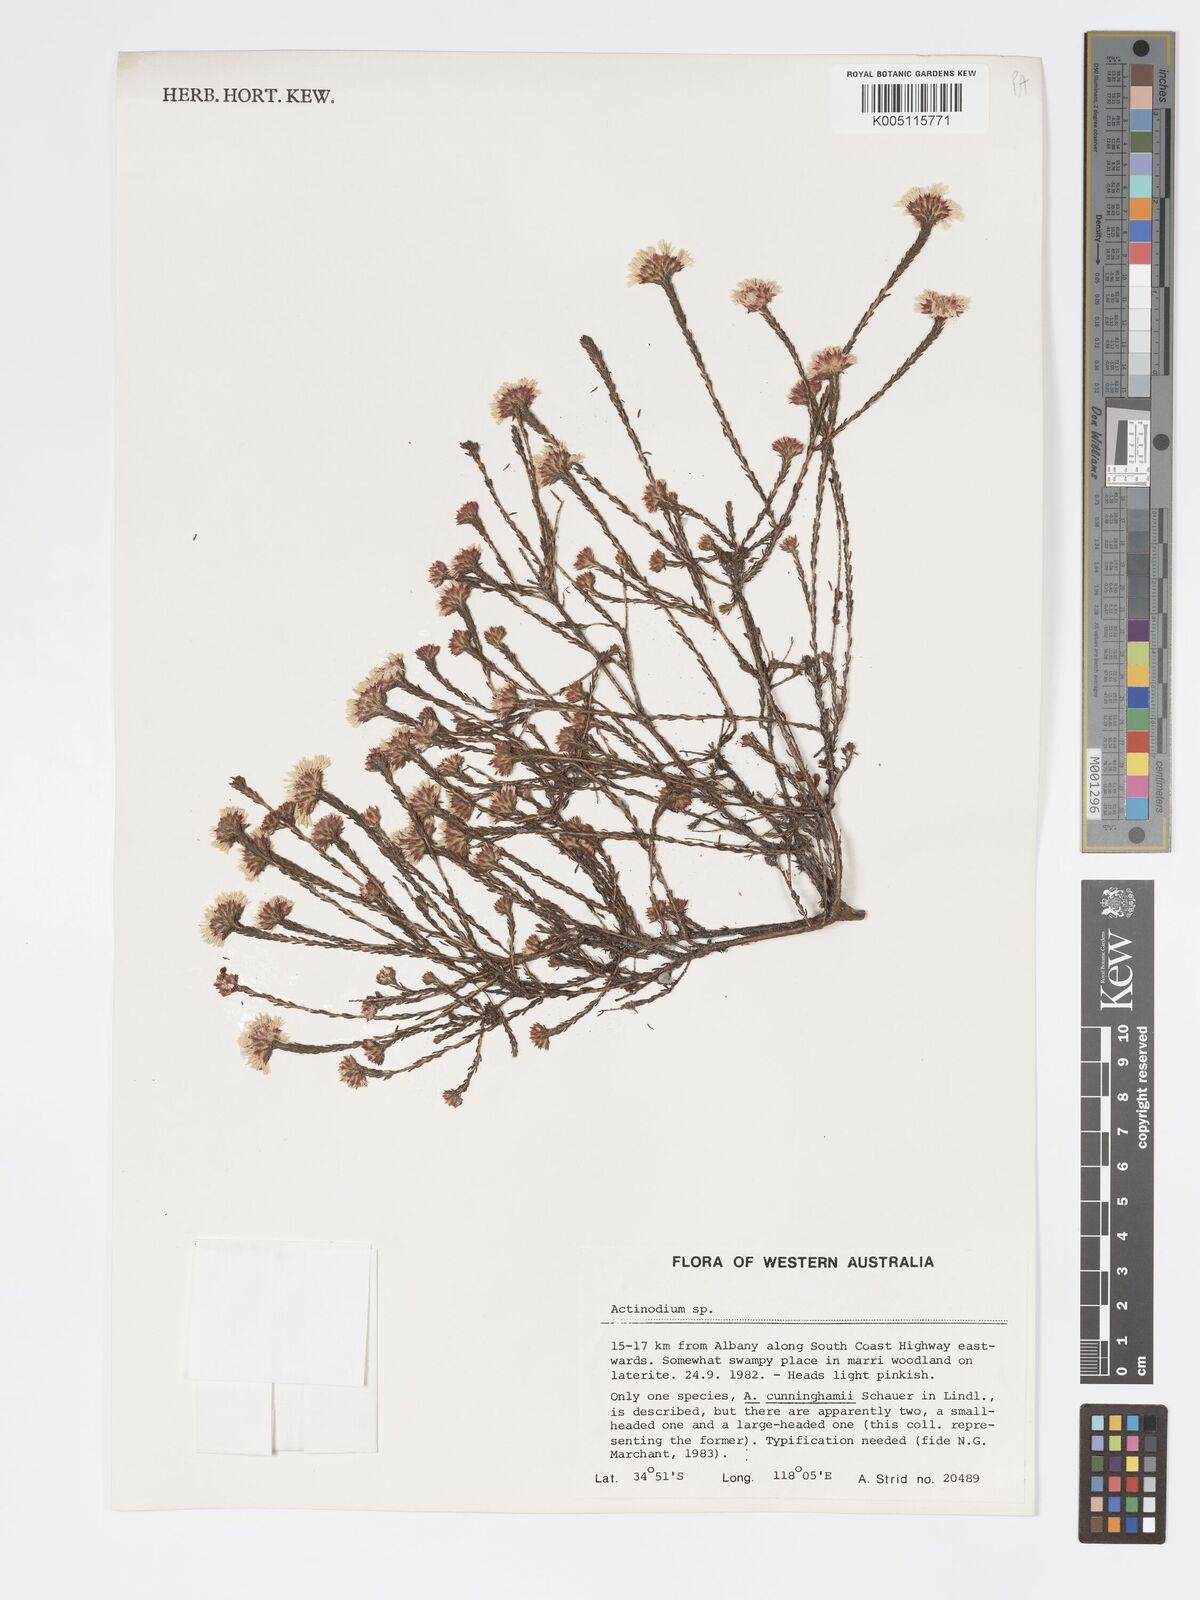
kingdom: Plantae
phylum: Tracheophyta
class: Magnoliopsida
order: Myrtales
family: Myrtaceae
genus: Actinodium
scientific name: Actinodium cunninghamii
